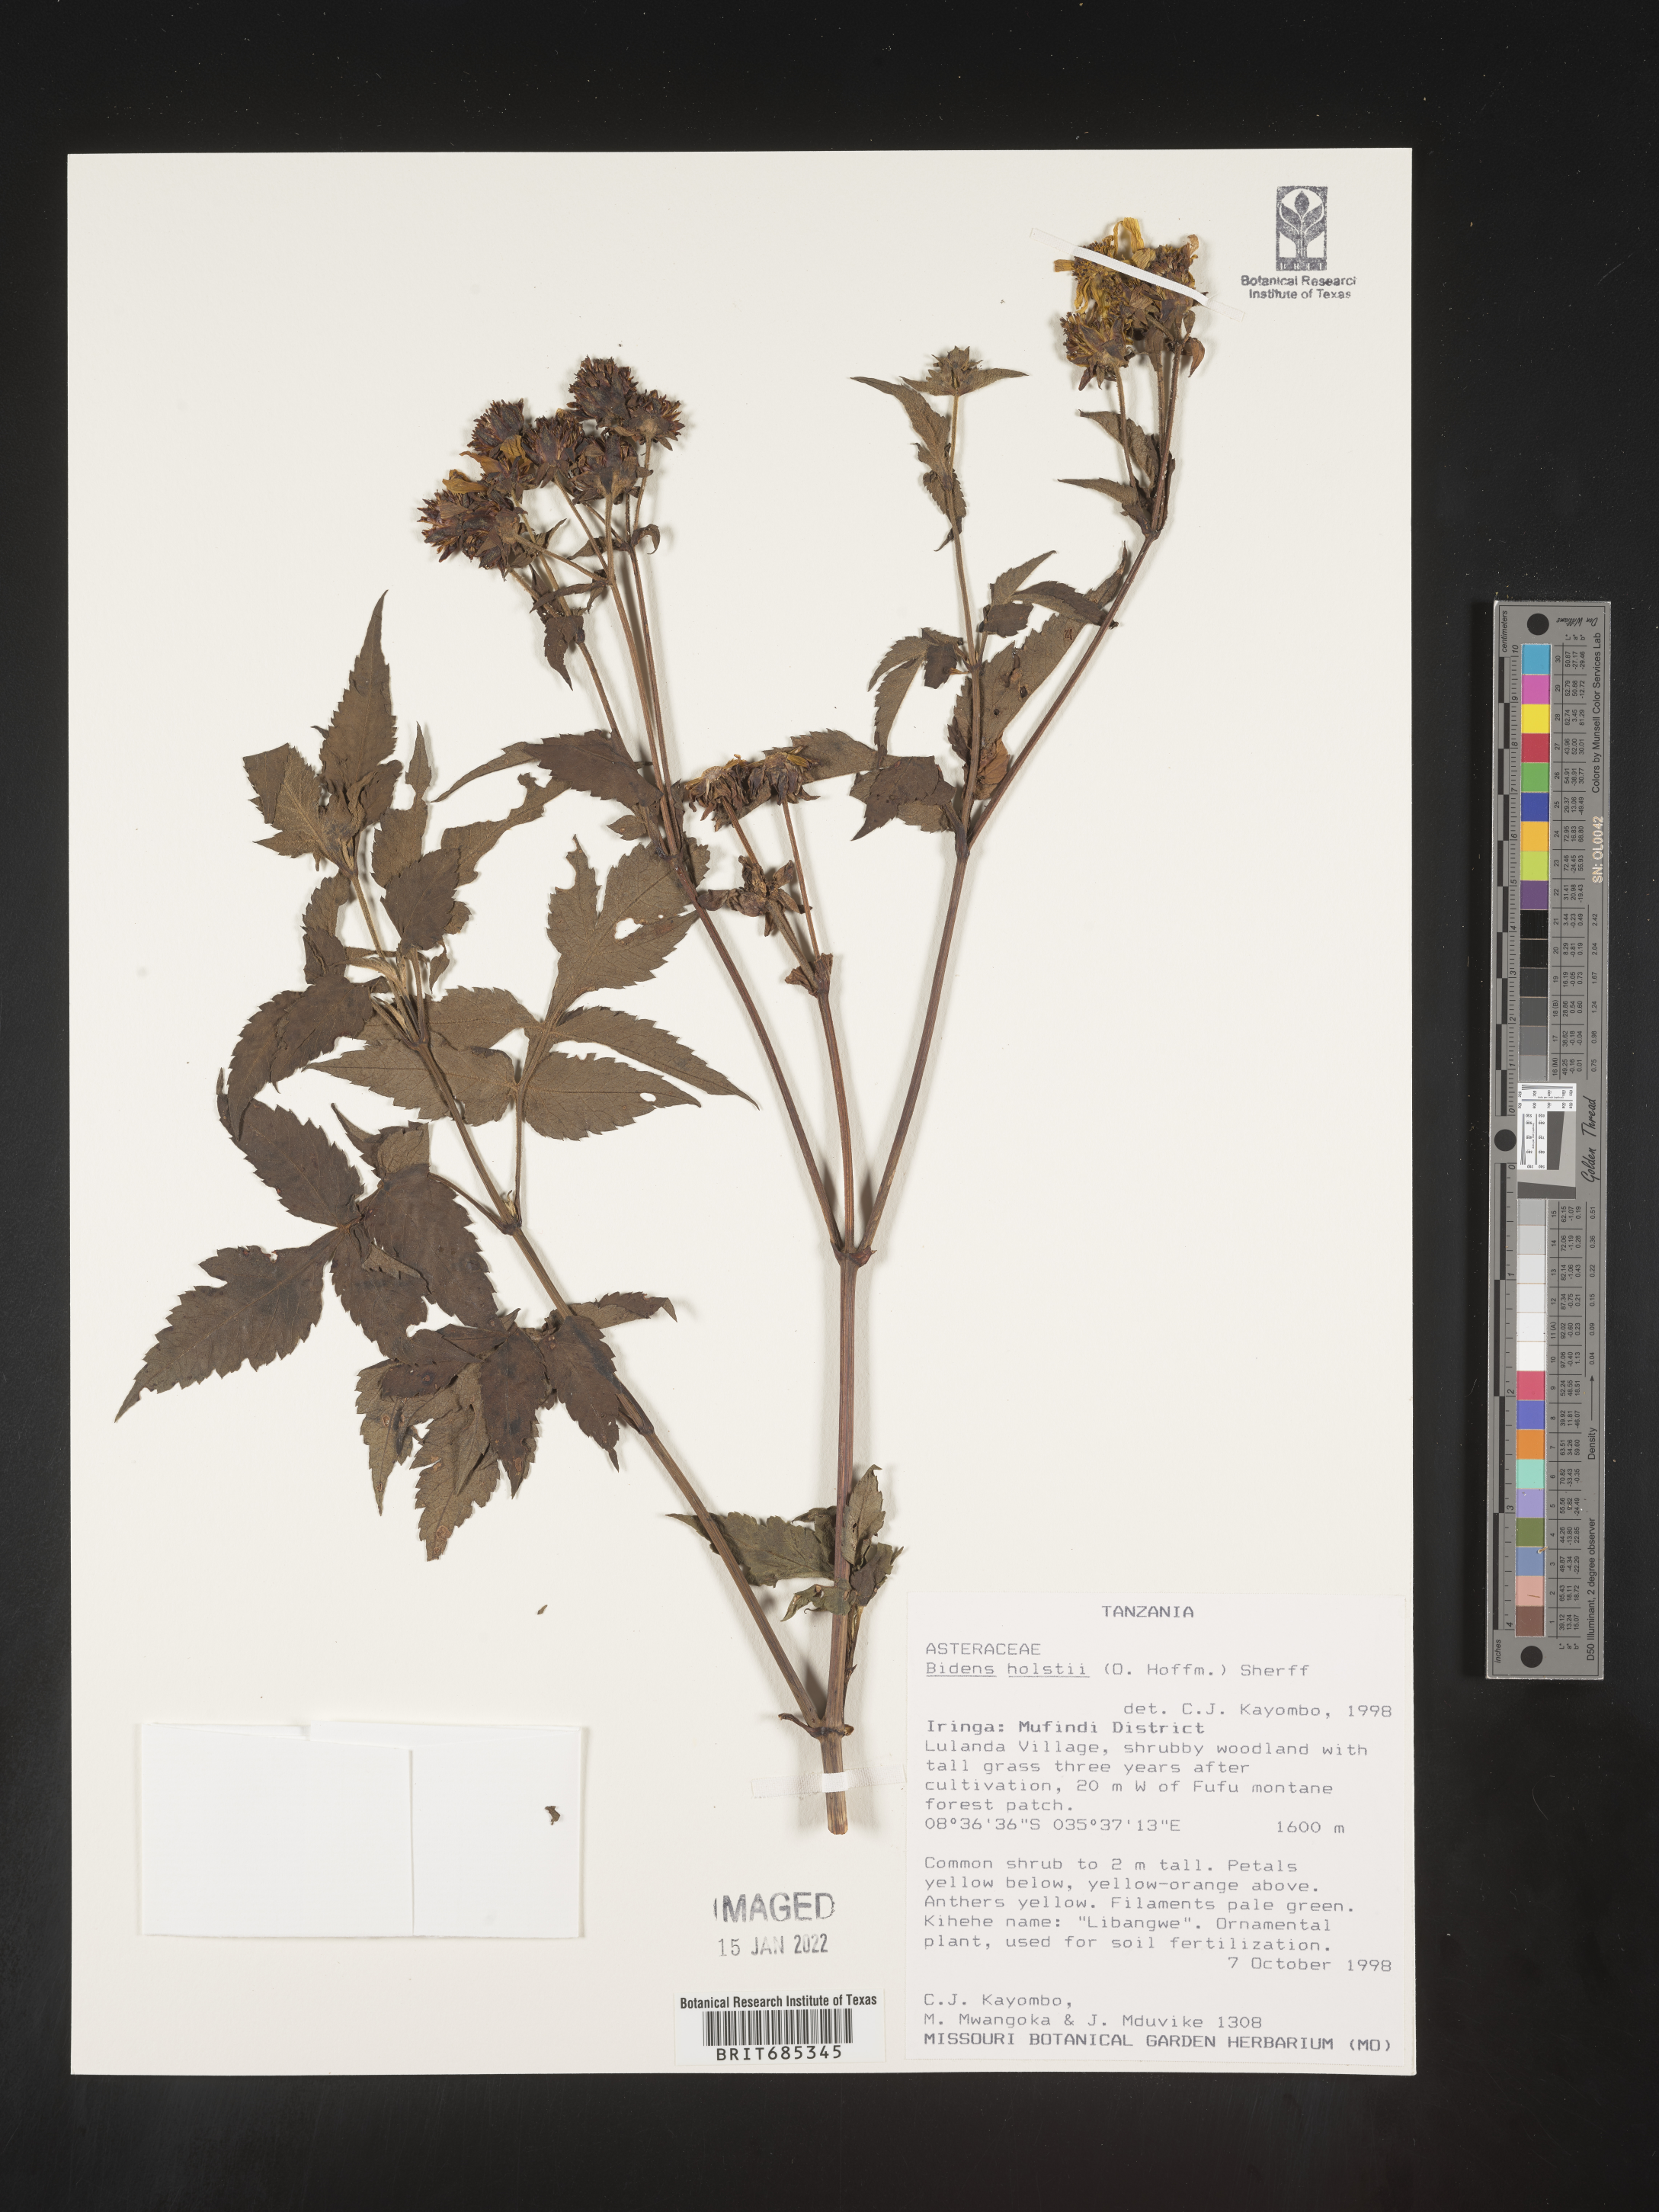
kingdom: Plantae
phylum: Tracheophyta
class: Magnoliopsida
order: Asterales
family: Asteraceae
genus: Bidens
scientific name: Bidens
